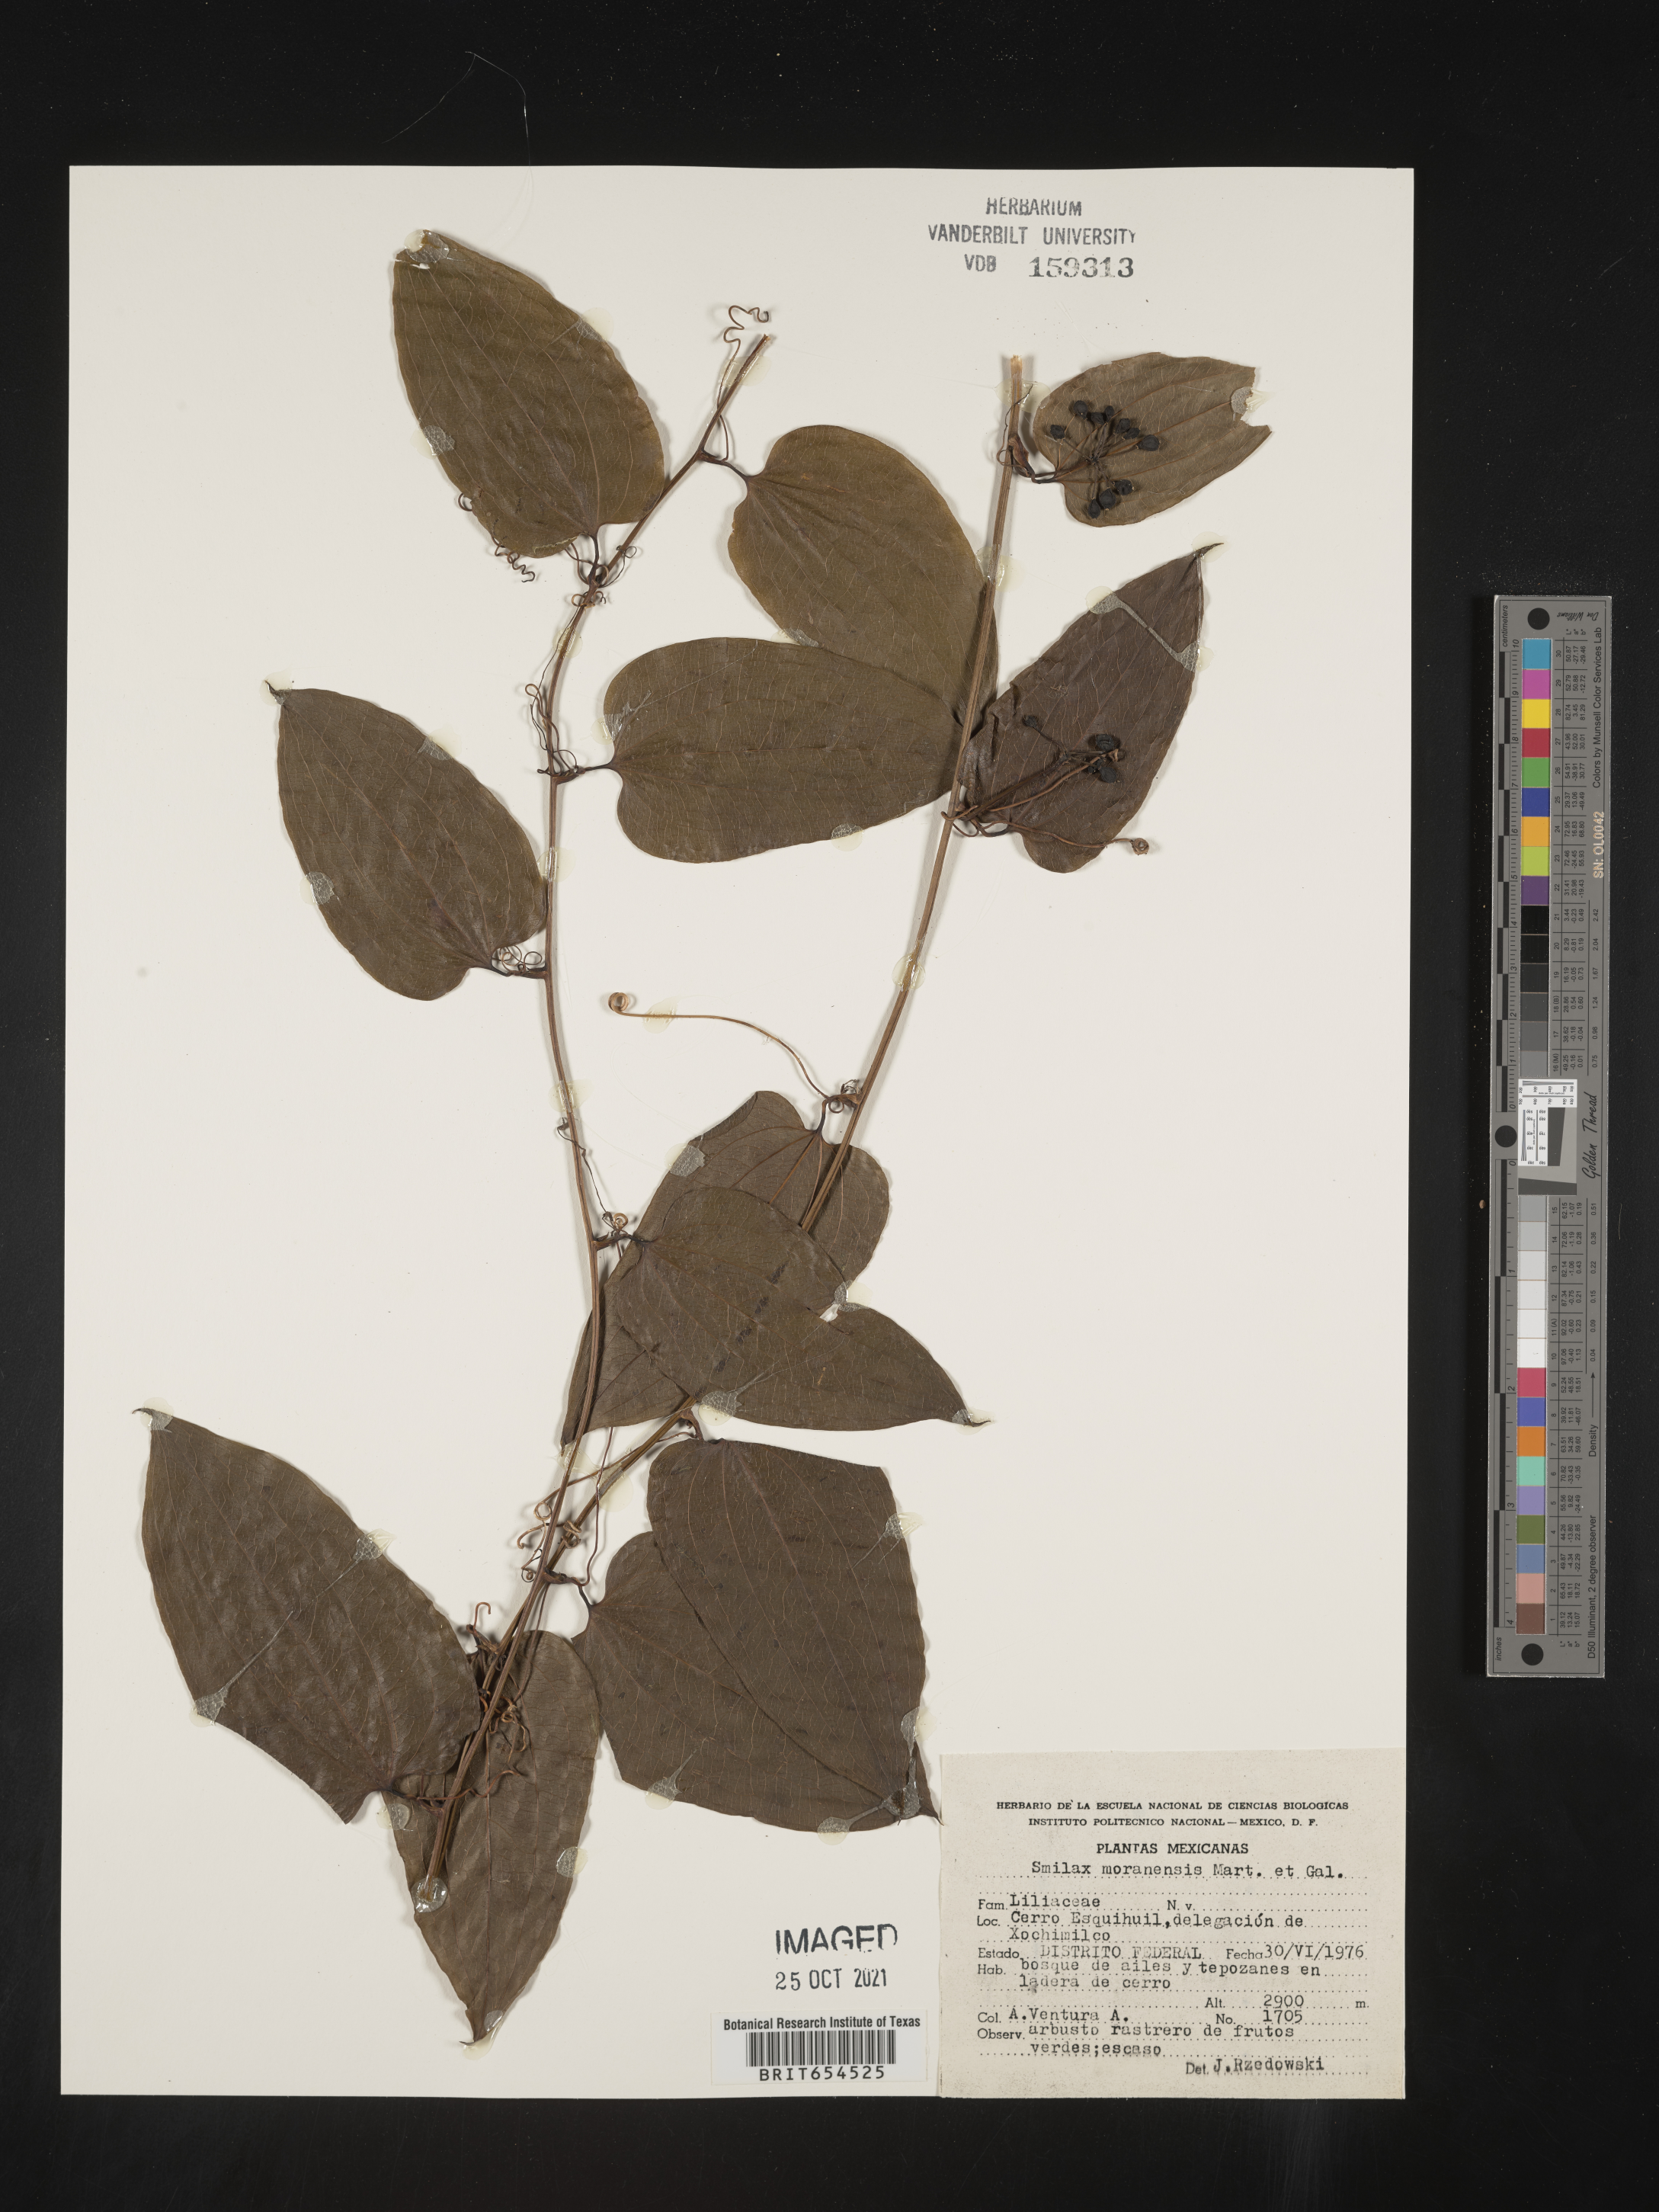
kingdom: Plantae
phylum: Tracheophyta
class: Liliopsida
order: Liliales
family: Smilacaceae
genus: Smilax
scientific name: Smilax
